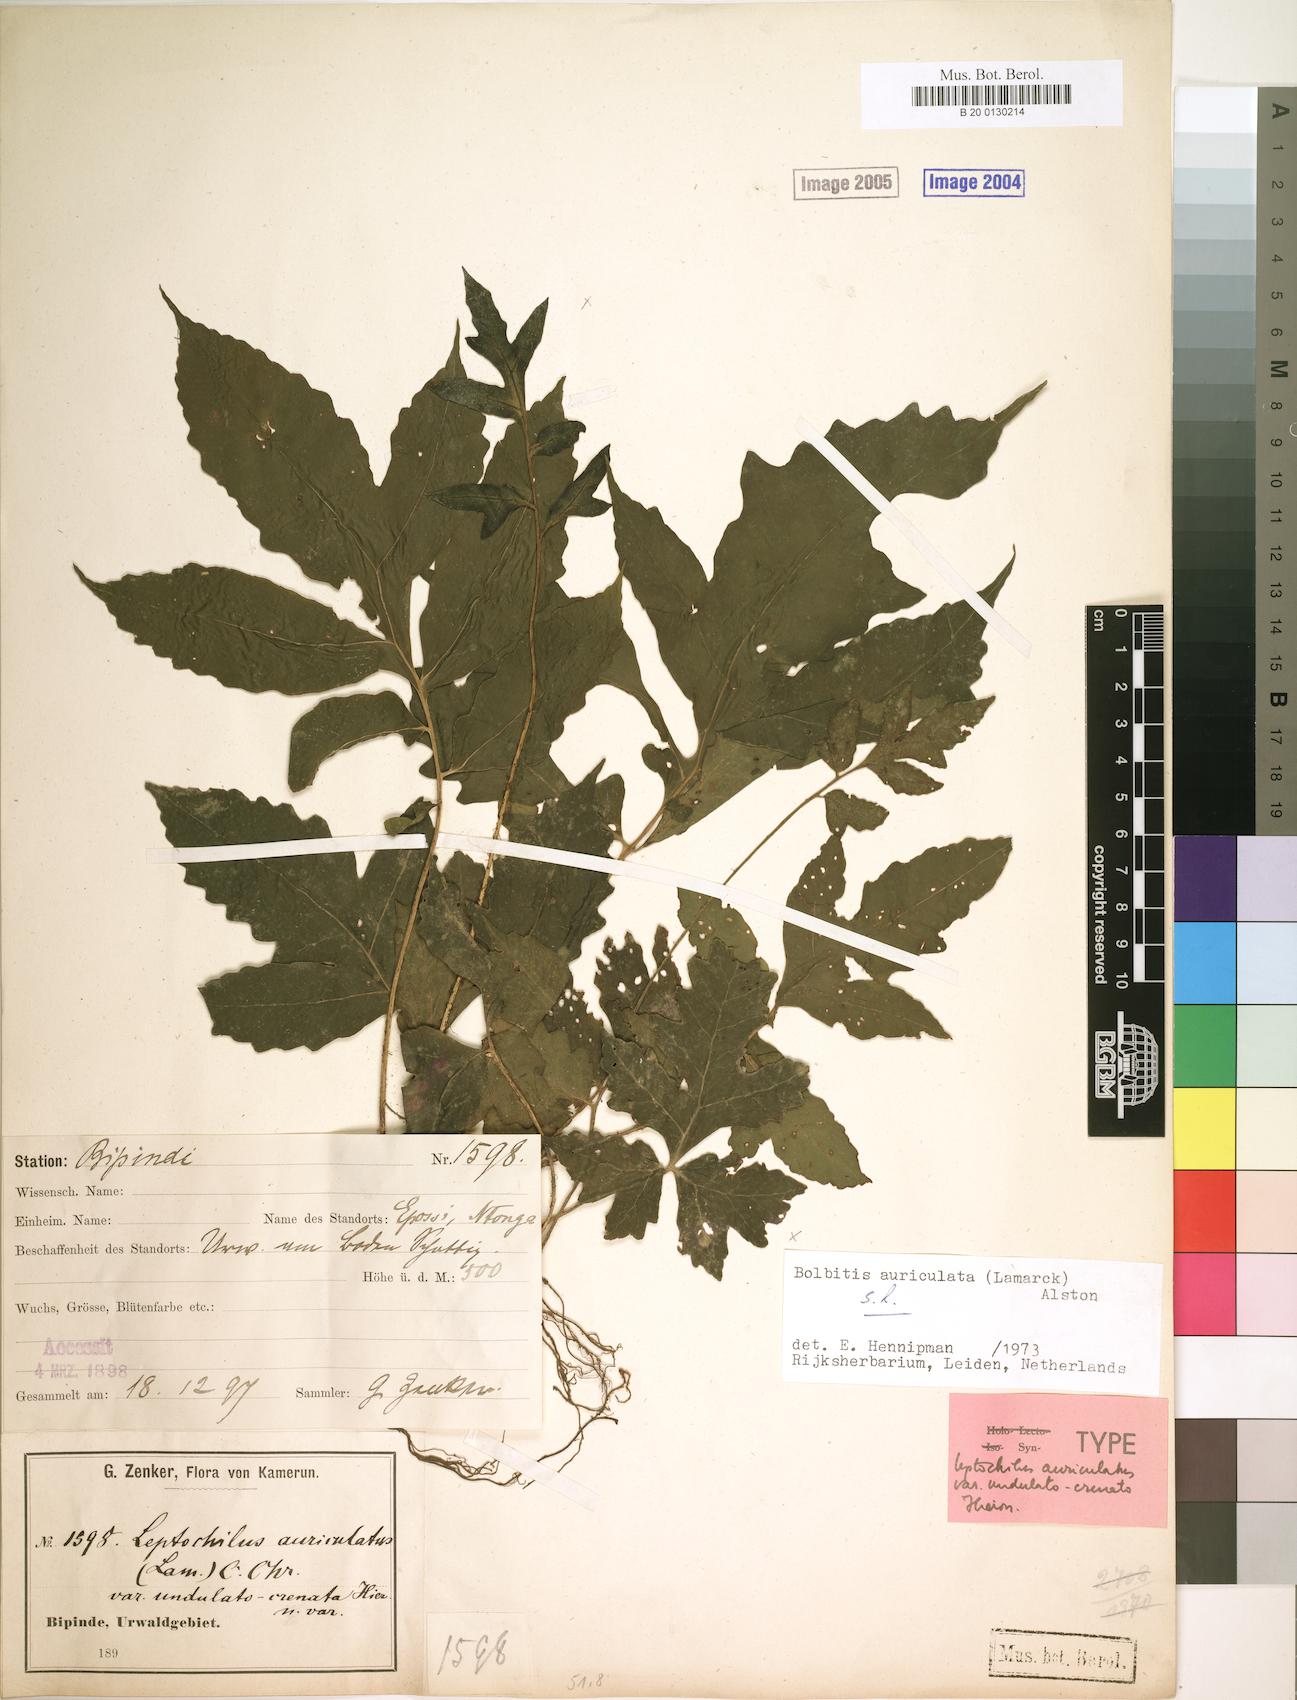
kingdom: Plantae
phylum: Tracheophyta
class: Polypodiopsida
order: Polypodiales
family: Dryopteridaceae
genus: Bolbitis
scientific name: Bolbitis auriculata
